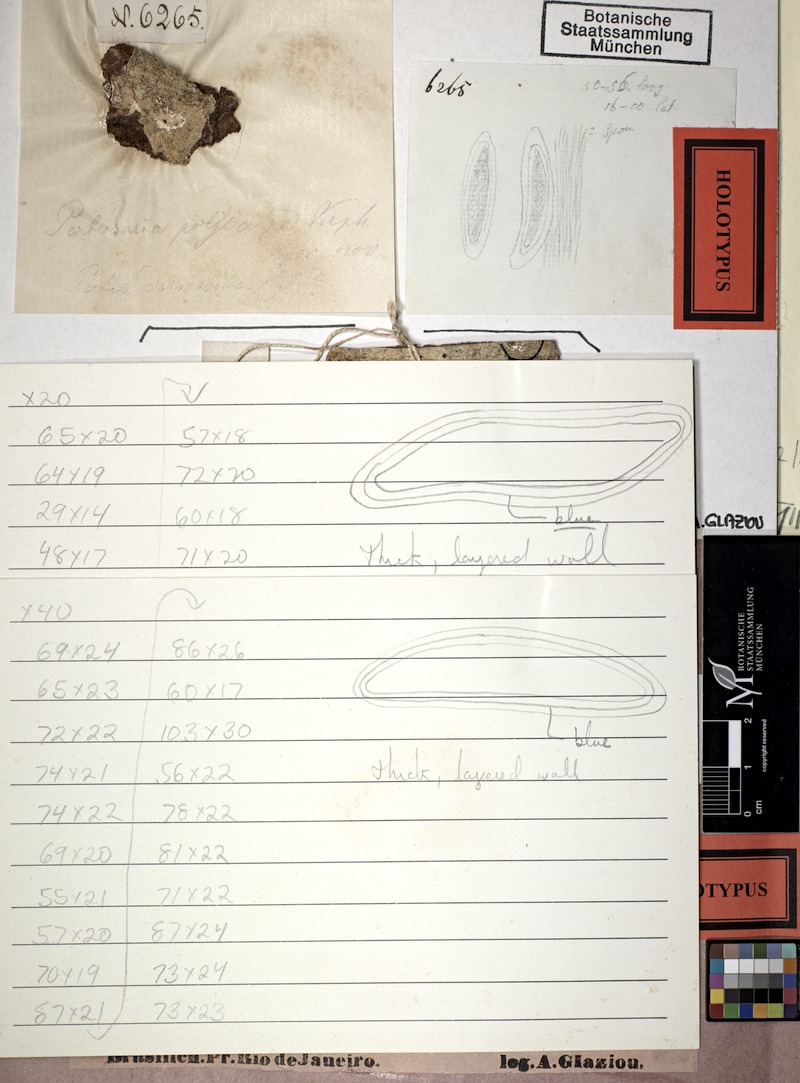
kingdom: Fungi
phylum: Ascomycota
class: Lecanoromycetes
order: Pertusariales
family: Pertusariaceae
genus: Pertusaria
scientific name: Pertusaria eitneriana
